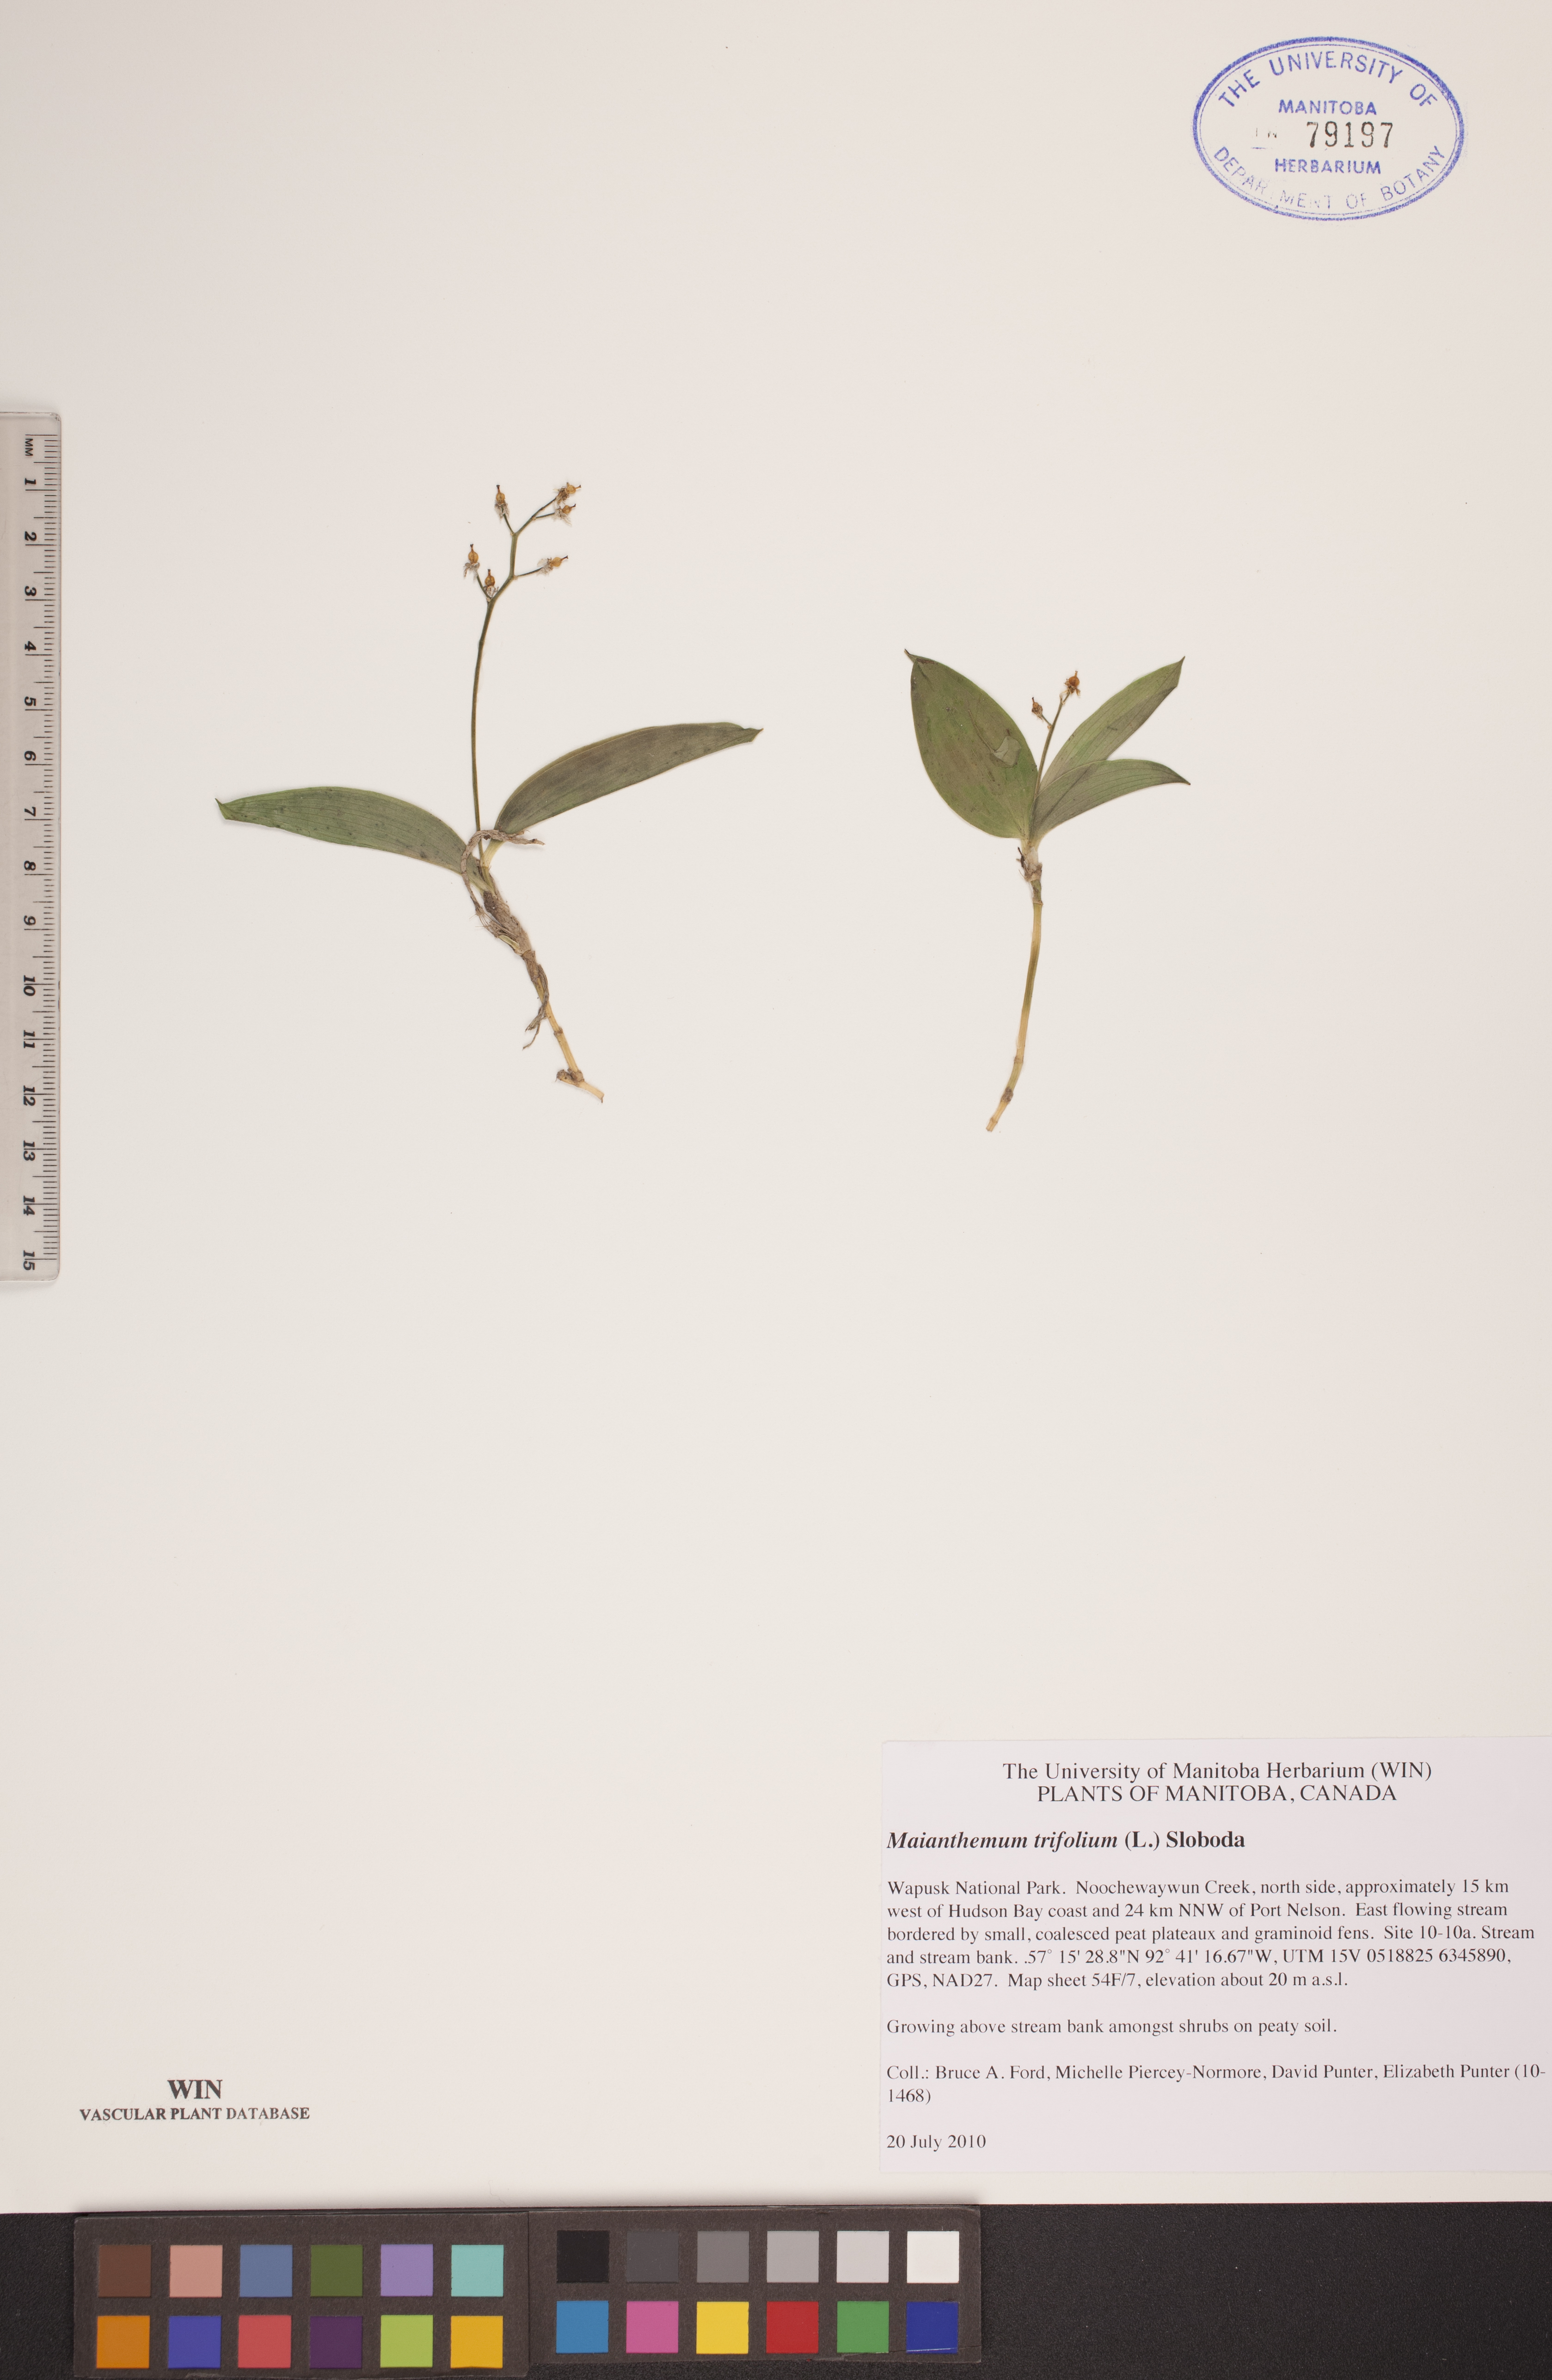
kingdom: Plantae
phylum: Tracheophyta
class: Liliopsida
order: Asparagales
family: Asparagaceae
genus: Maianthemum
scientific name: Maianthemum trifolium
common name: Swamp false solomon's seal
